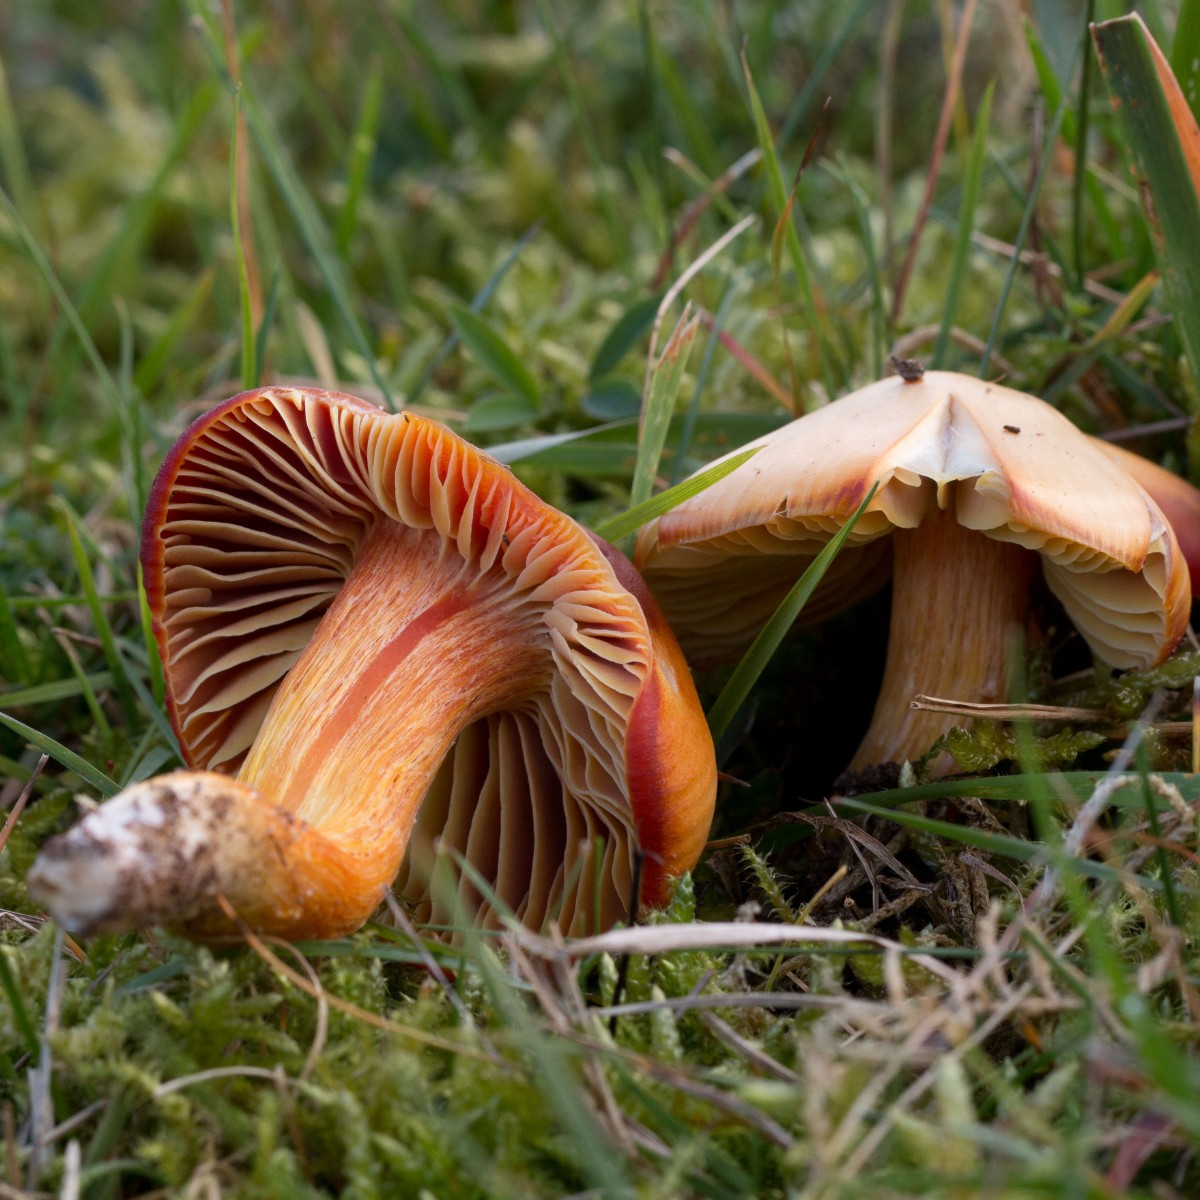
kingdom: Fungi
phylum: Basidiomycota
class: Agaricomycetes
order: Agaricales
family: Hygrophoraceae
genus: Hygrocybe
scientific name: Hygrocybe punicea
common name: skarlagen-vokshat
